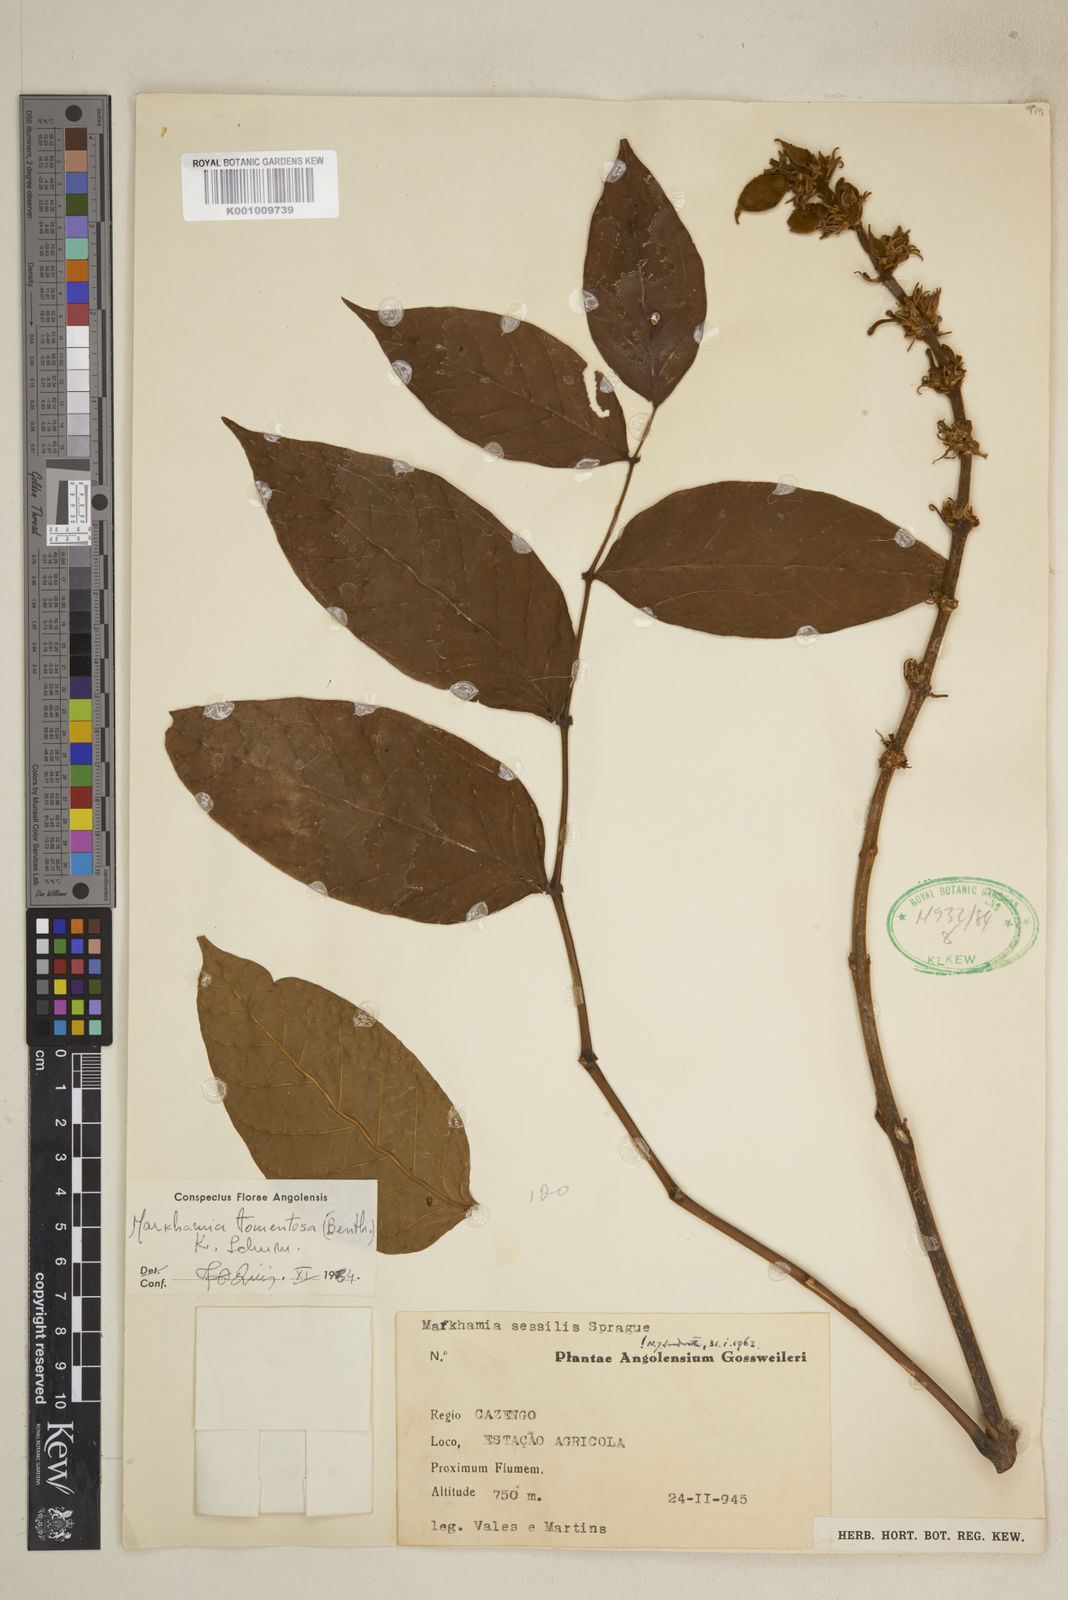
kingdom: Plantae
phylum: Tracheophyta
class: Magnoliopsida
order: Lamiales
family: Bignoniaceae
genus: Markhamia
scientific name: Markhamia tomentosa
